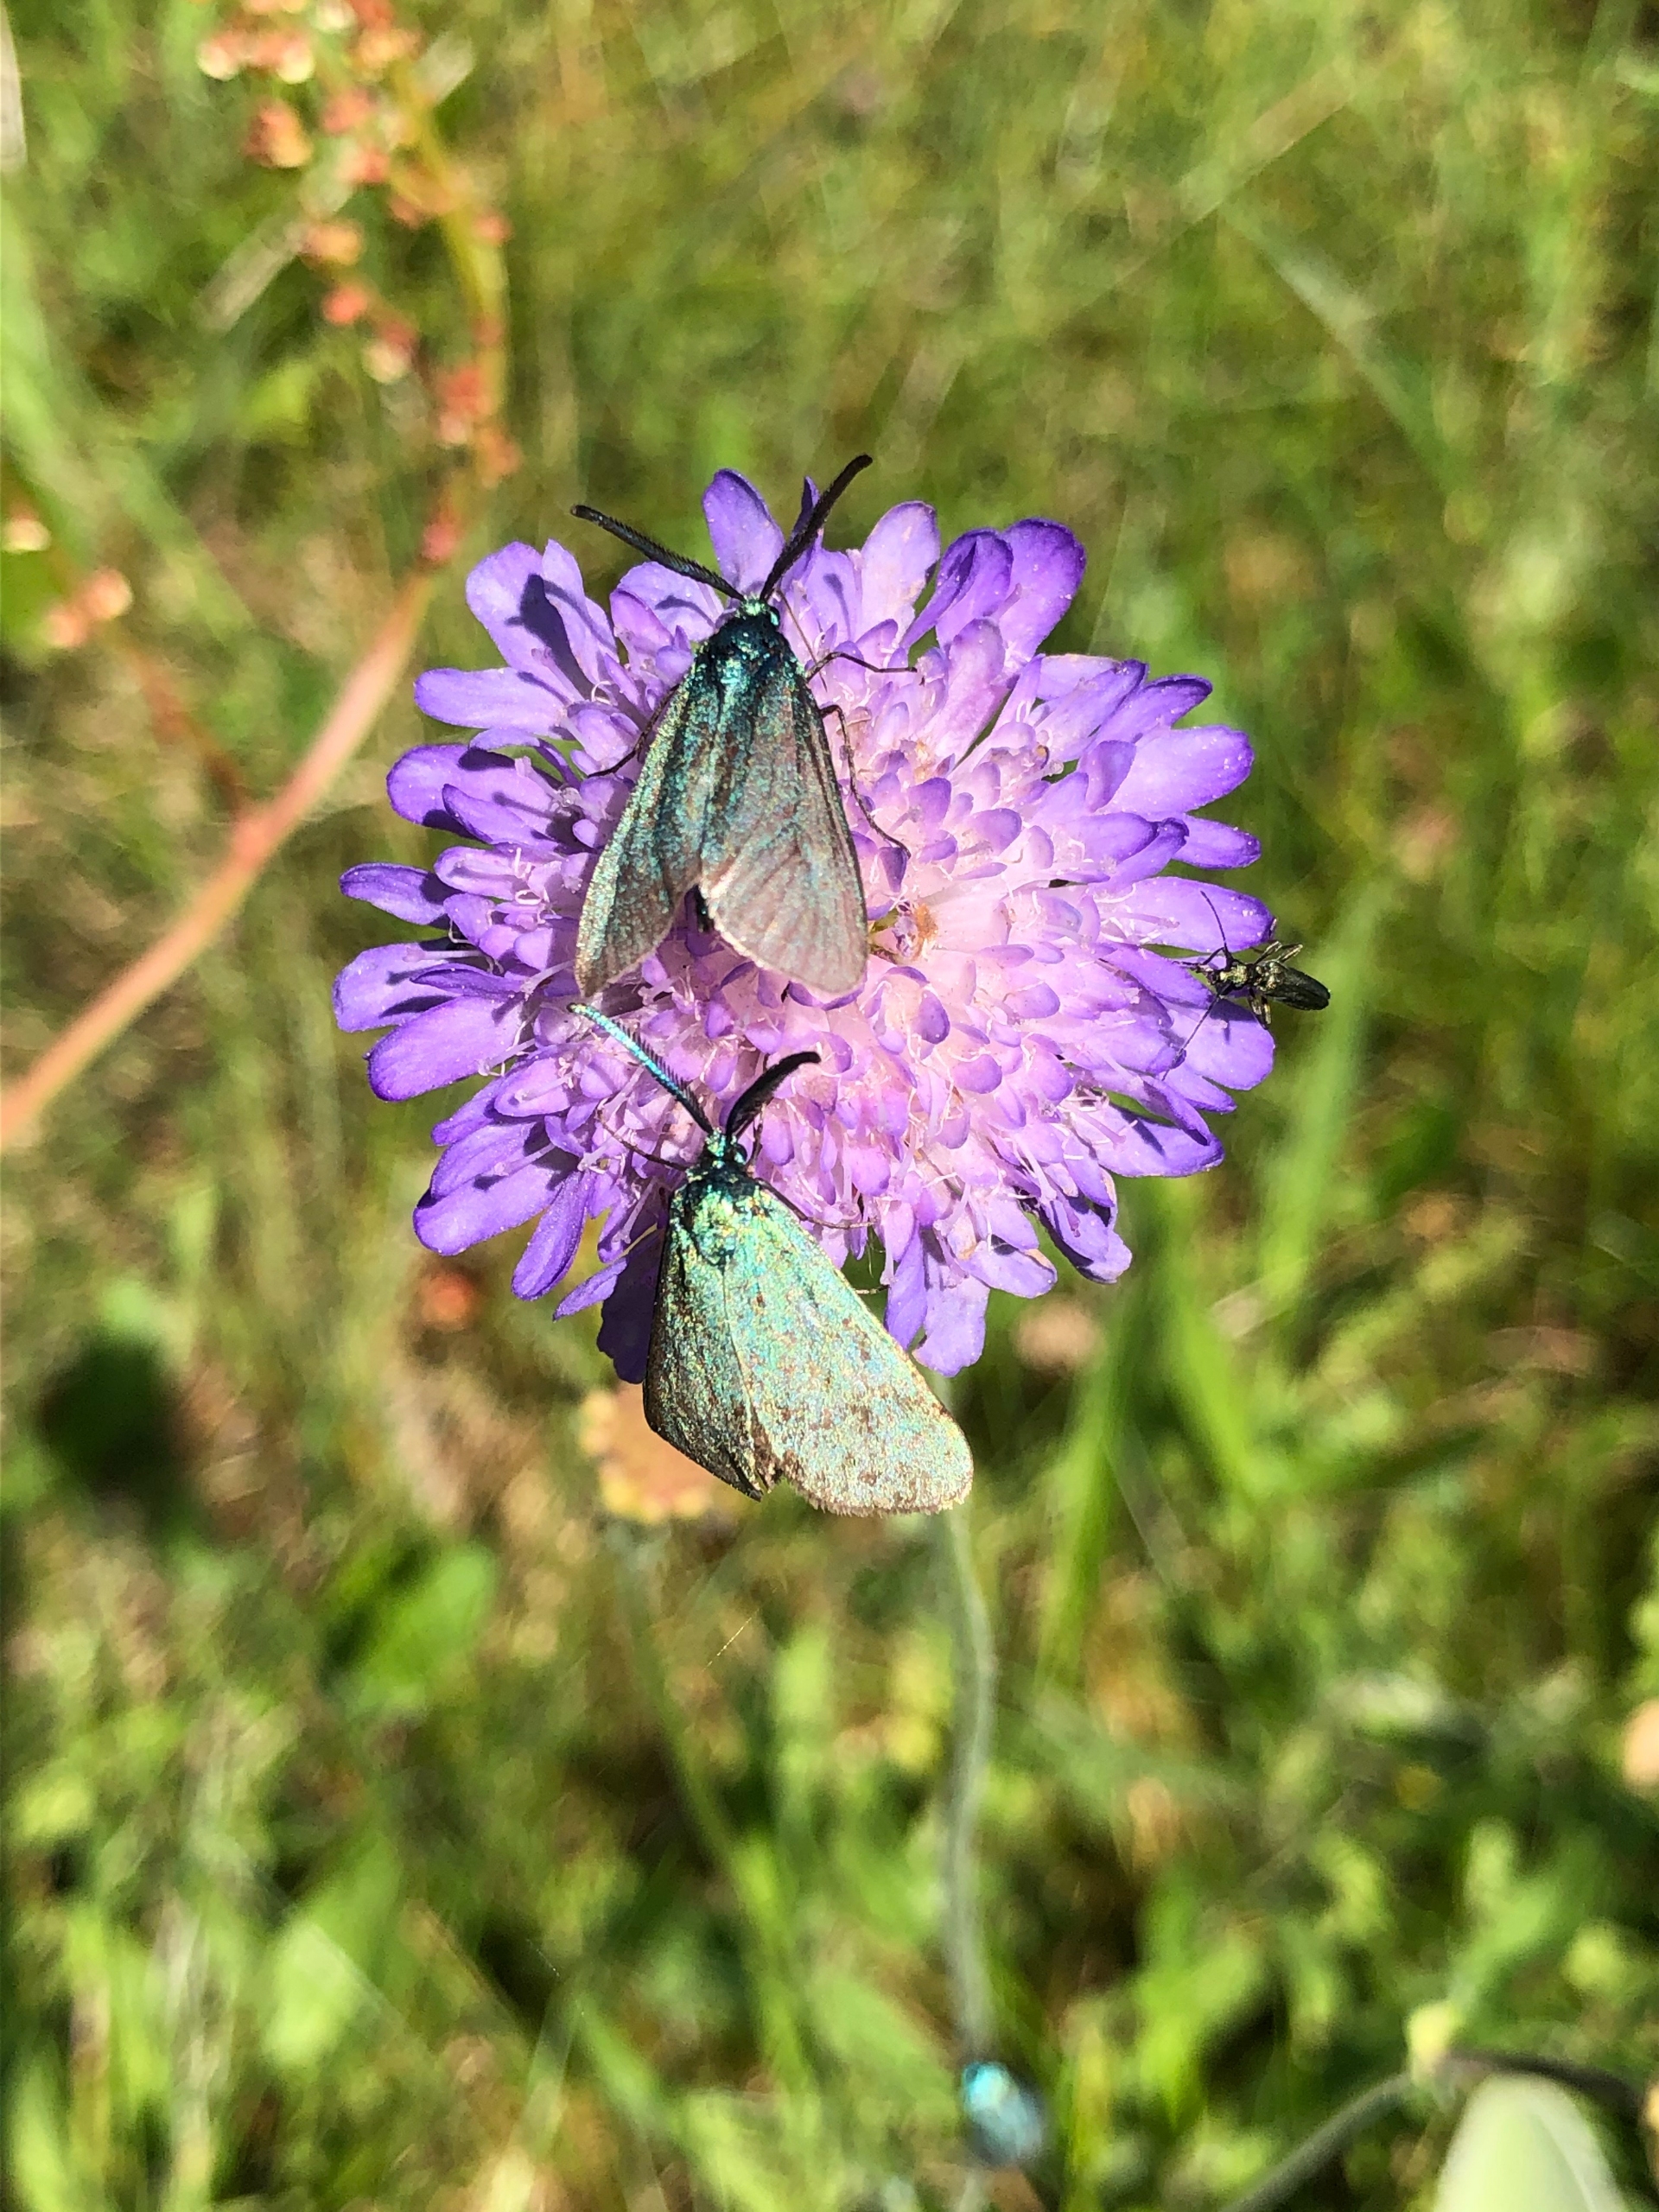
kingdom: Animalia
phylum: Arthropoda
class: Insecta
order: Lepidoptera
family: Zygaenidae
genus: Adscita
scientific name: Adscita statices
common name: Metalvinge
